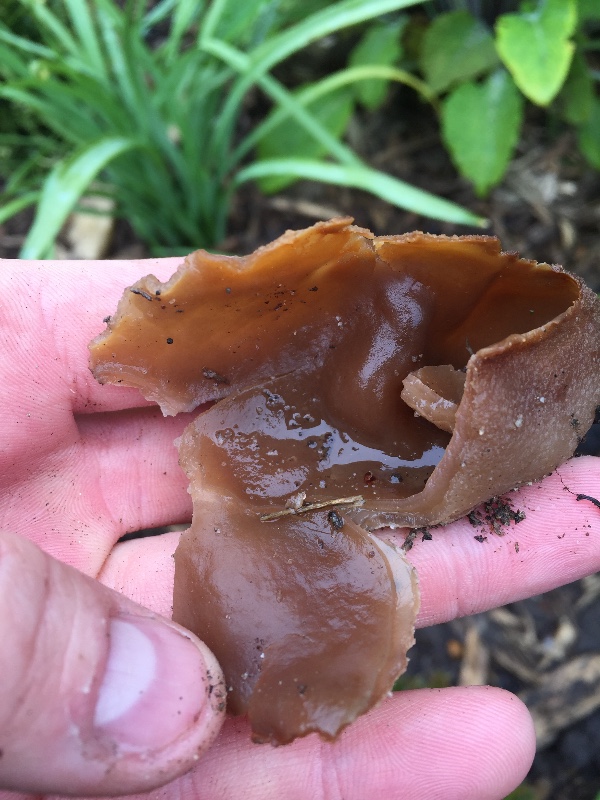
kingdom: Fungi
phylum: Ascomycota
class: Pezizomycetes
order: Pezizales
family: Pezizaceae
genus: Peziza
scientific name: Peziza vesiculosa
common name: blære-bægersvamp
